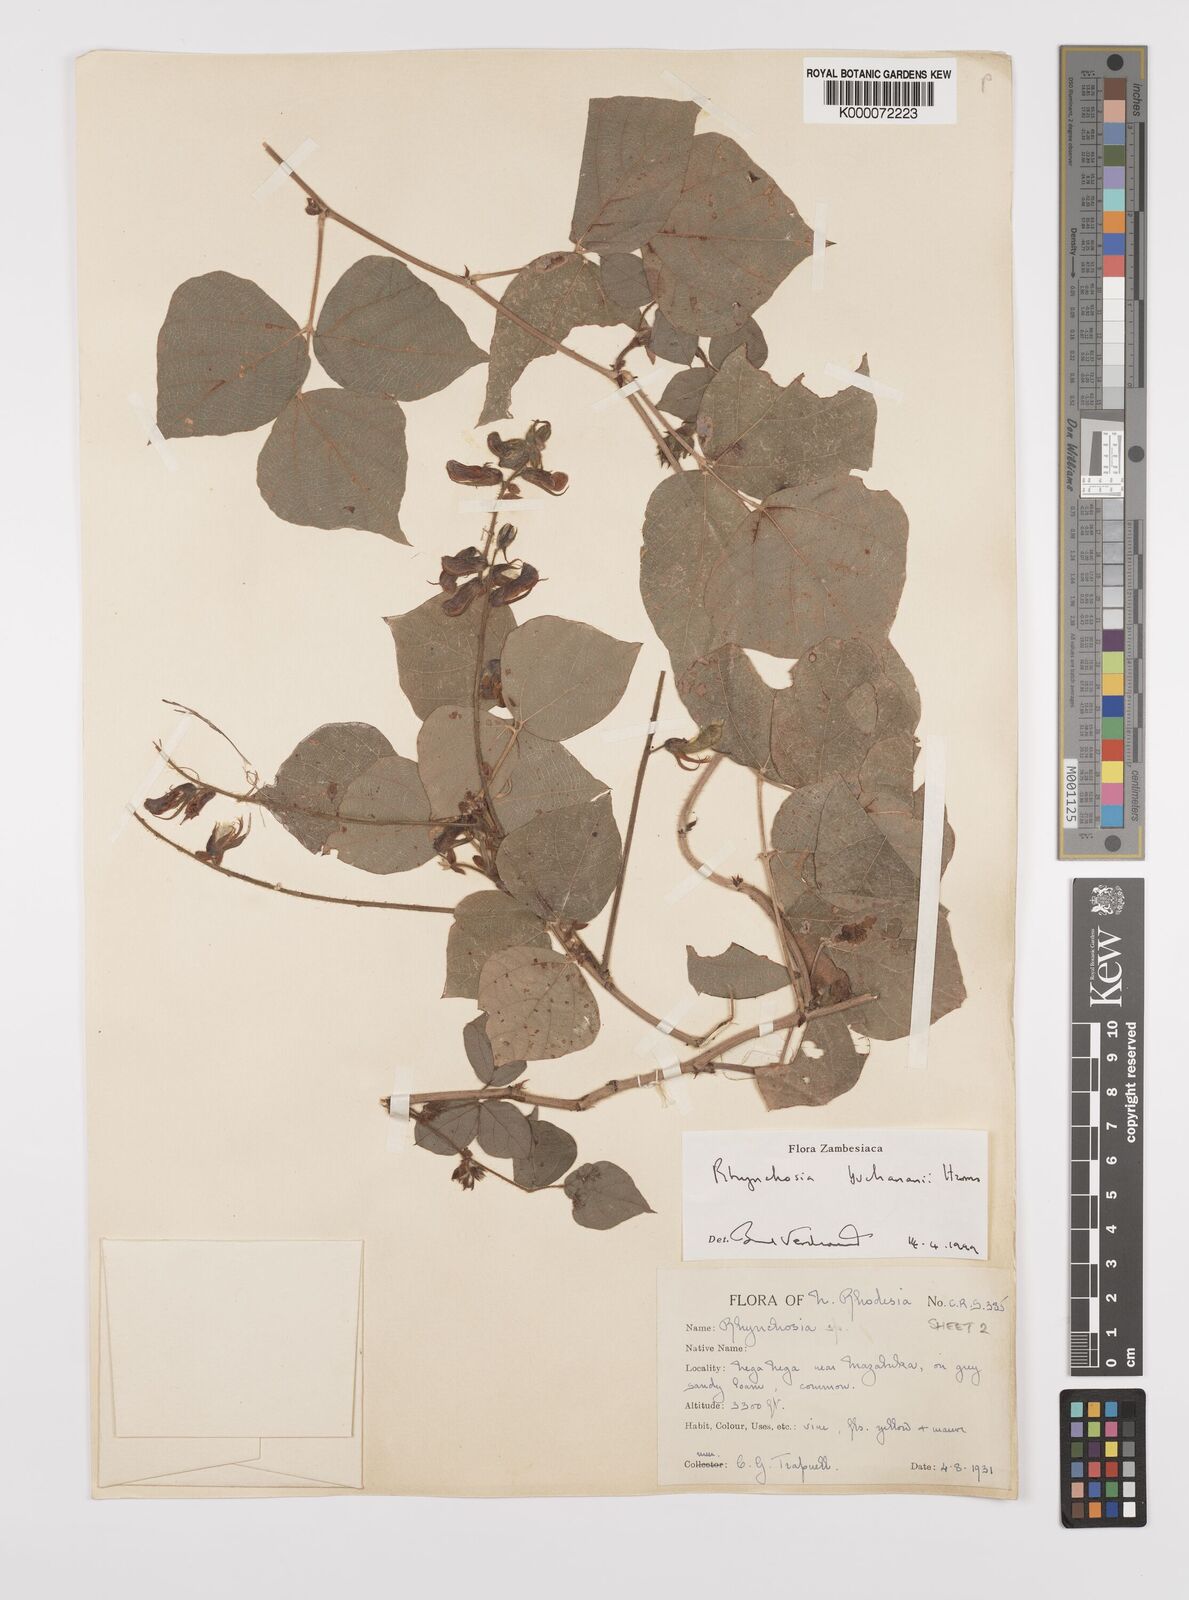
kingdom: Plantae
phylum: Tracheophyta
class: Magnoliopsida
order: Fabales
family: Fabaceae
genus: Rhynchosia
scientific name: Rhynchosia buchananii
